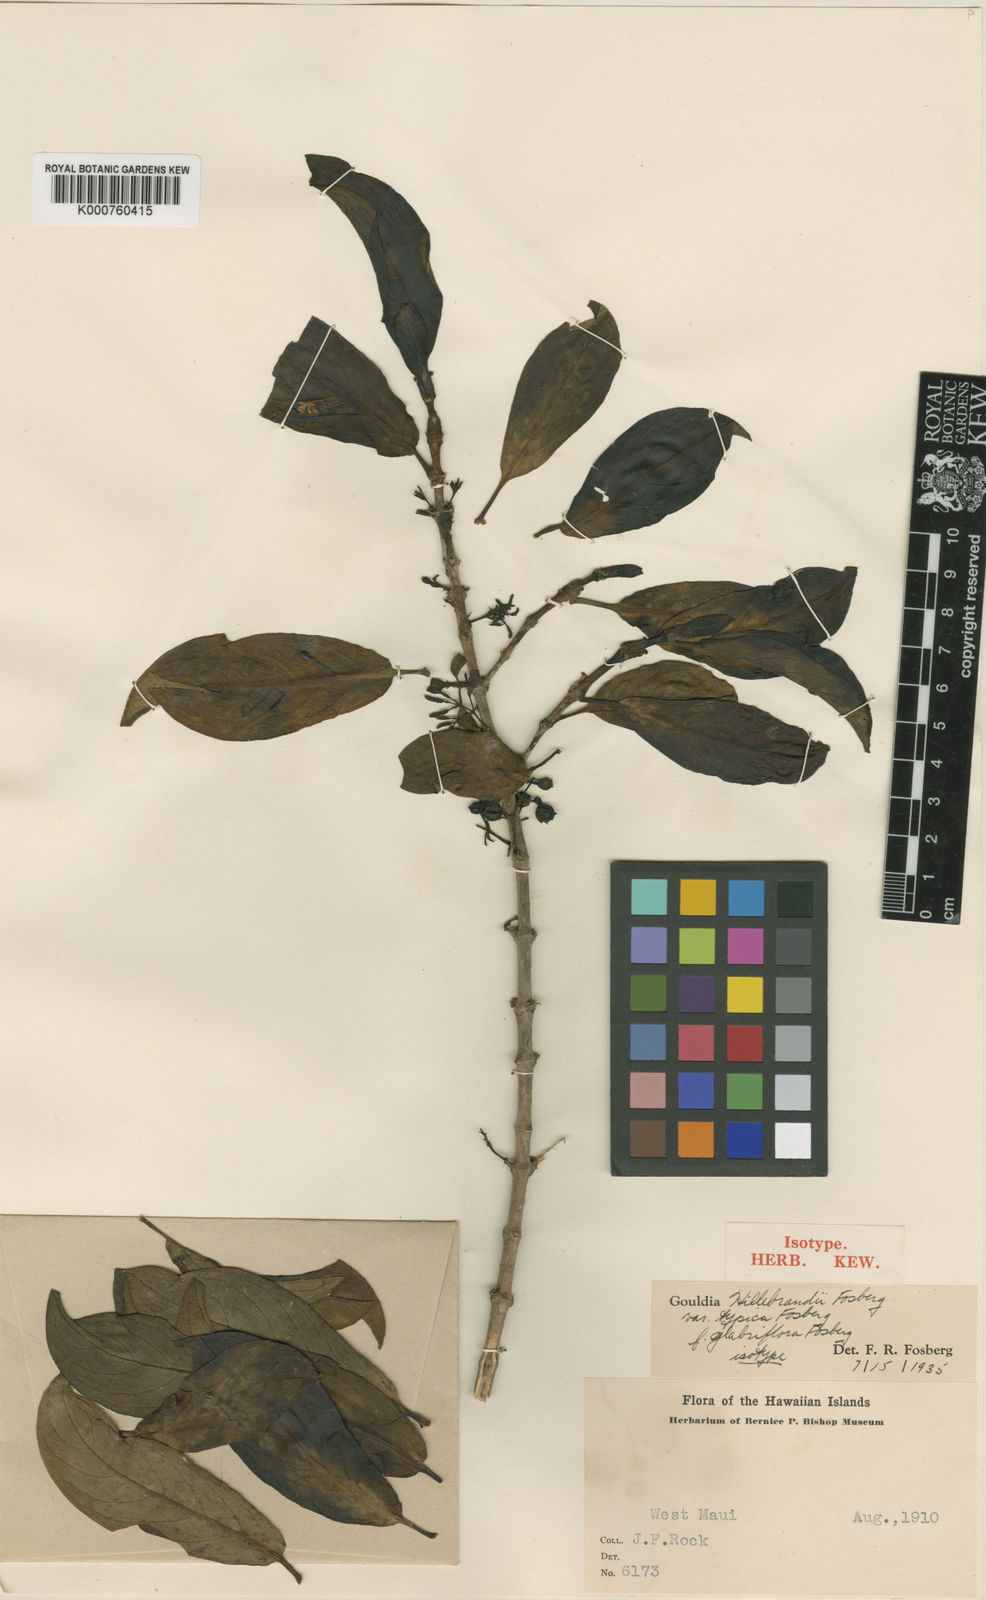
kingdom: Plantae
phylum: Tracheophyta
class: Magnoliopsida
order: Gentianales
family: Rubiaceae
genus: Kadua
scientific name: Kadua axillaris
